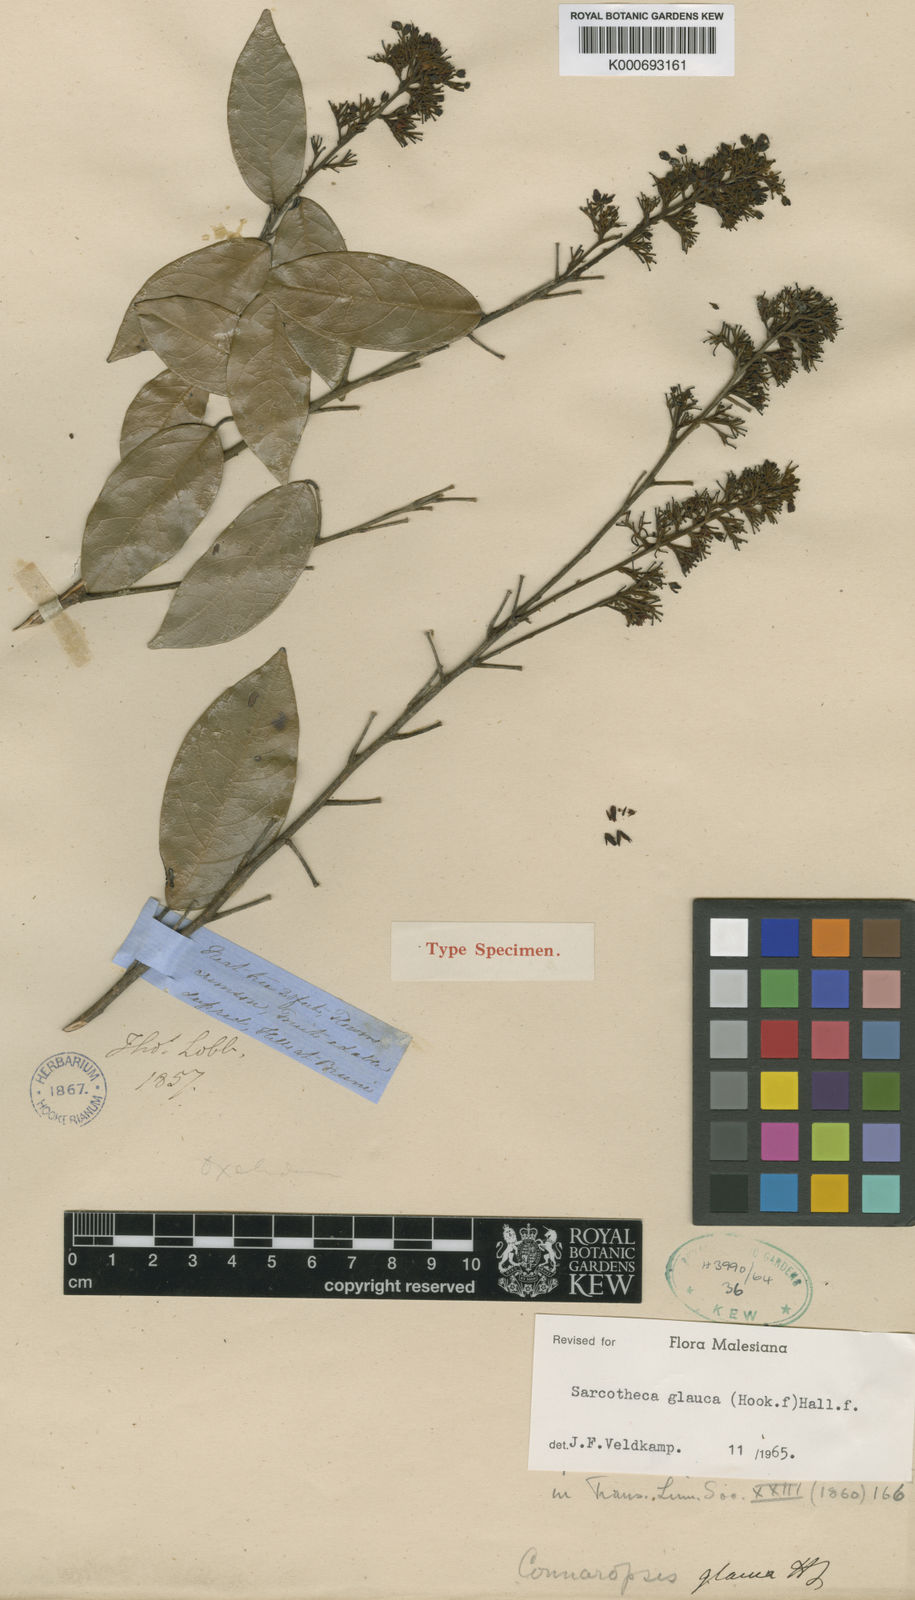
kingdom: Plantae
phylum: Tracheophyta
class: Magnoliopsida
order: Oxalidales
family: Oxalidaceae
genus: Sarcotheca
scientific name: Sarcotheca glauca
